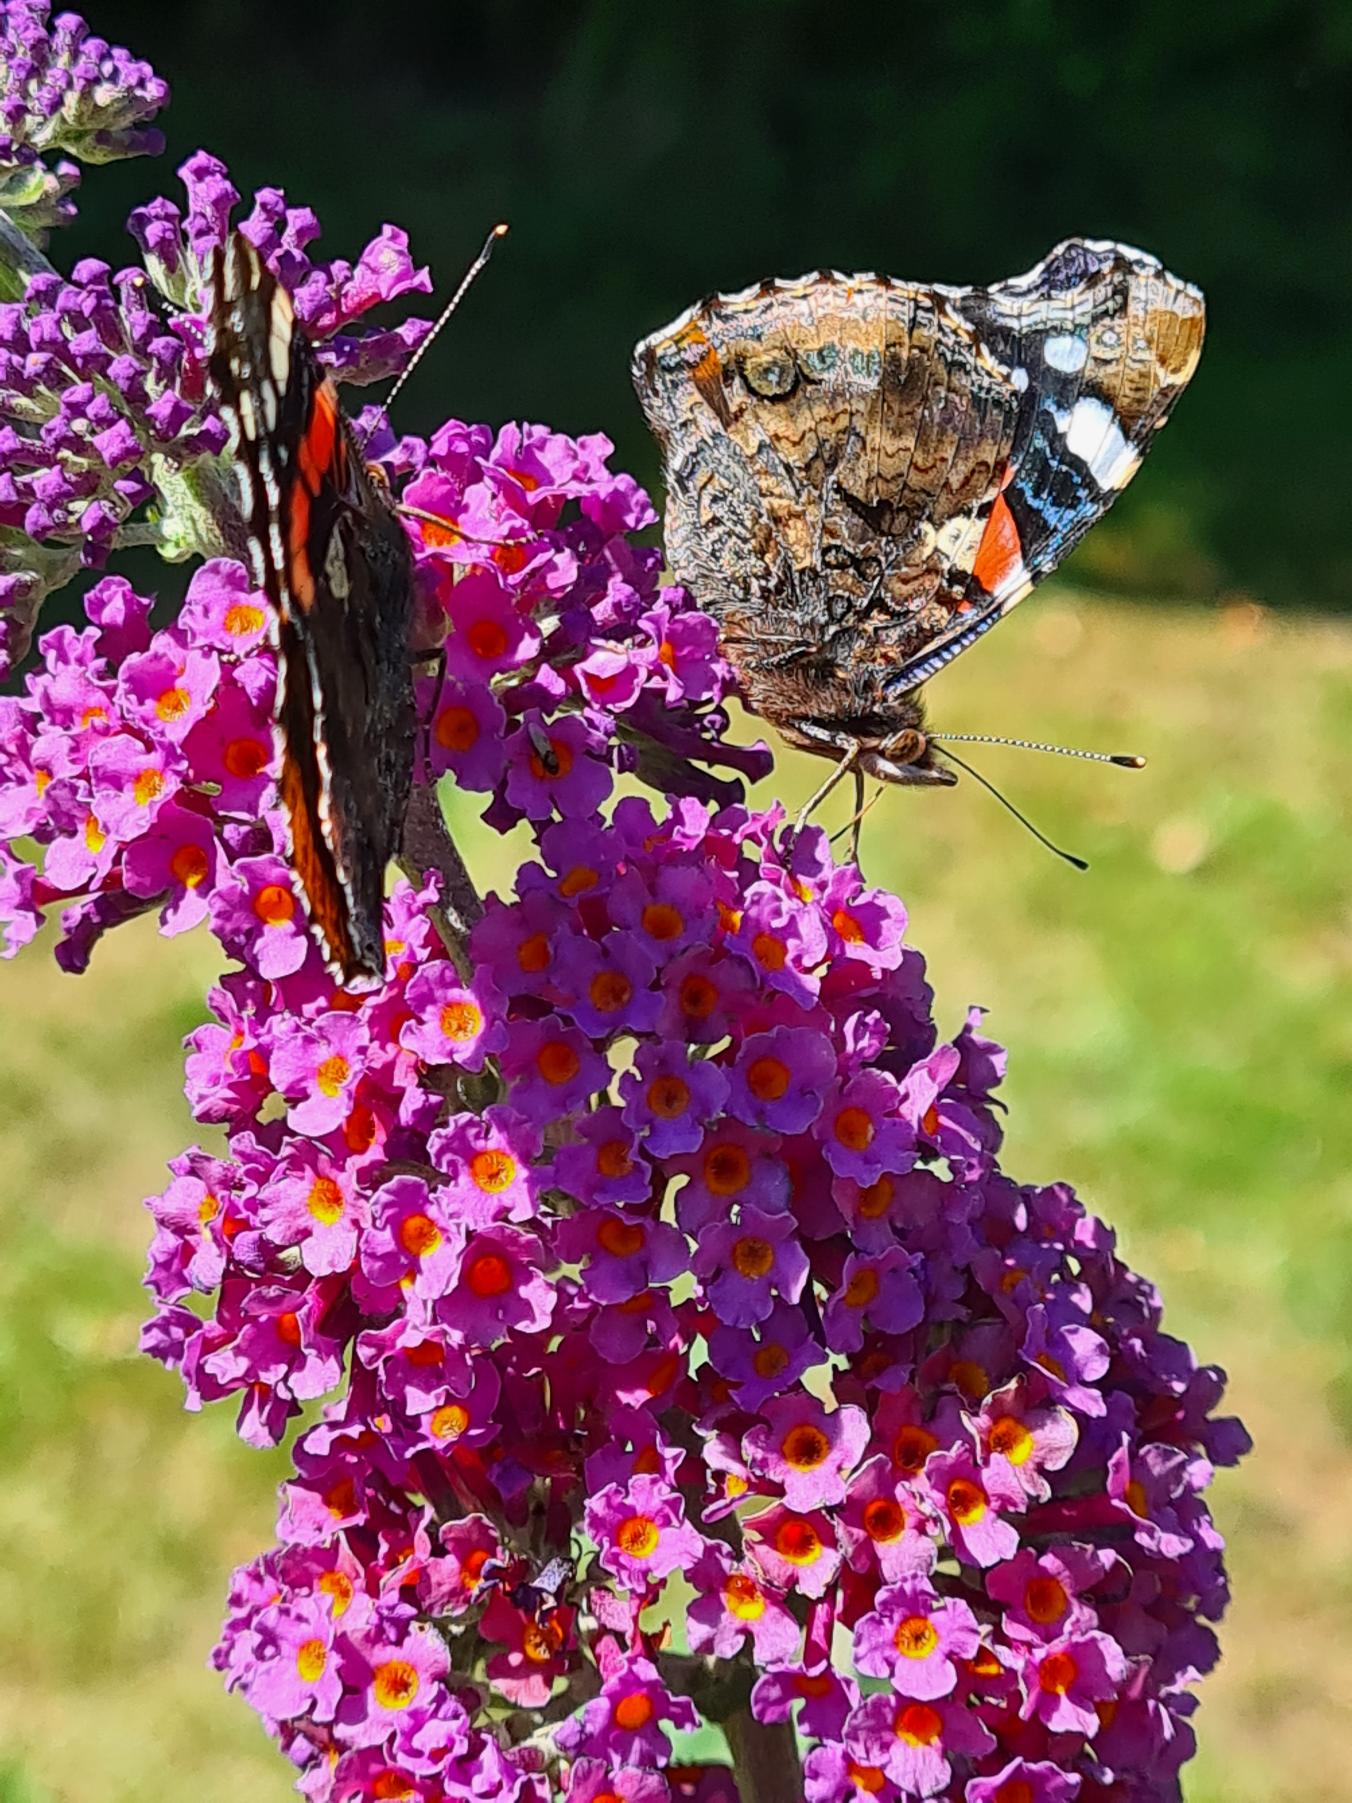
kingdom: Animalia
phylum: Arthropoda
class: Insecta
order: Lepidoptera
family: Nymphalidae
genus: Vanessa
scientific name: Vanessa atalanta
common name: Admiral
